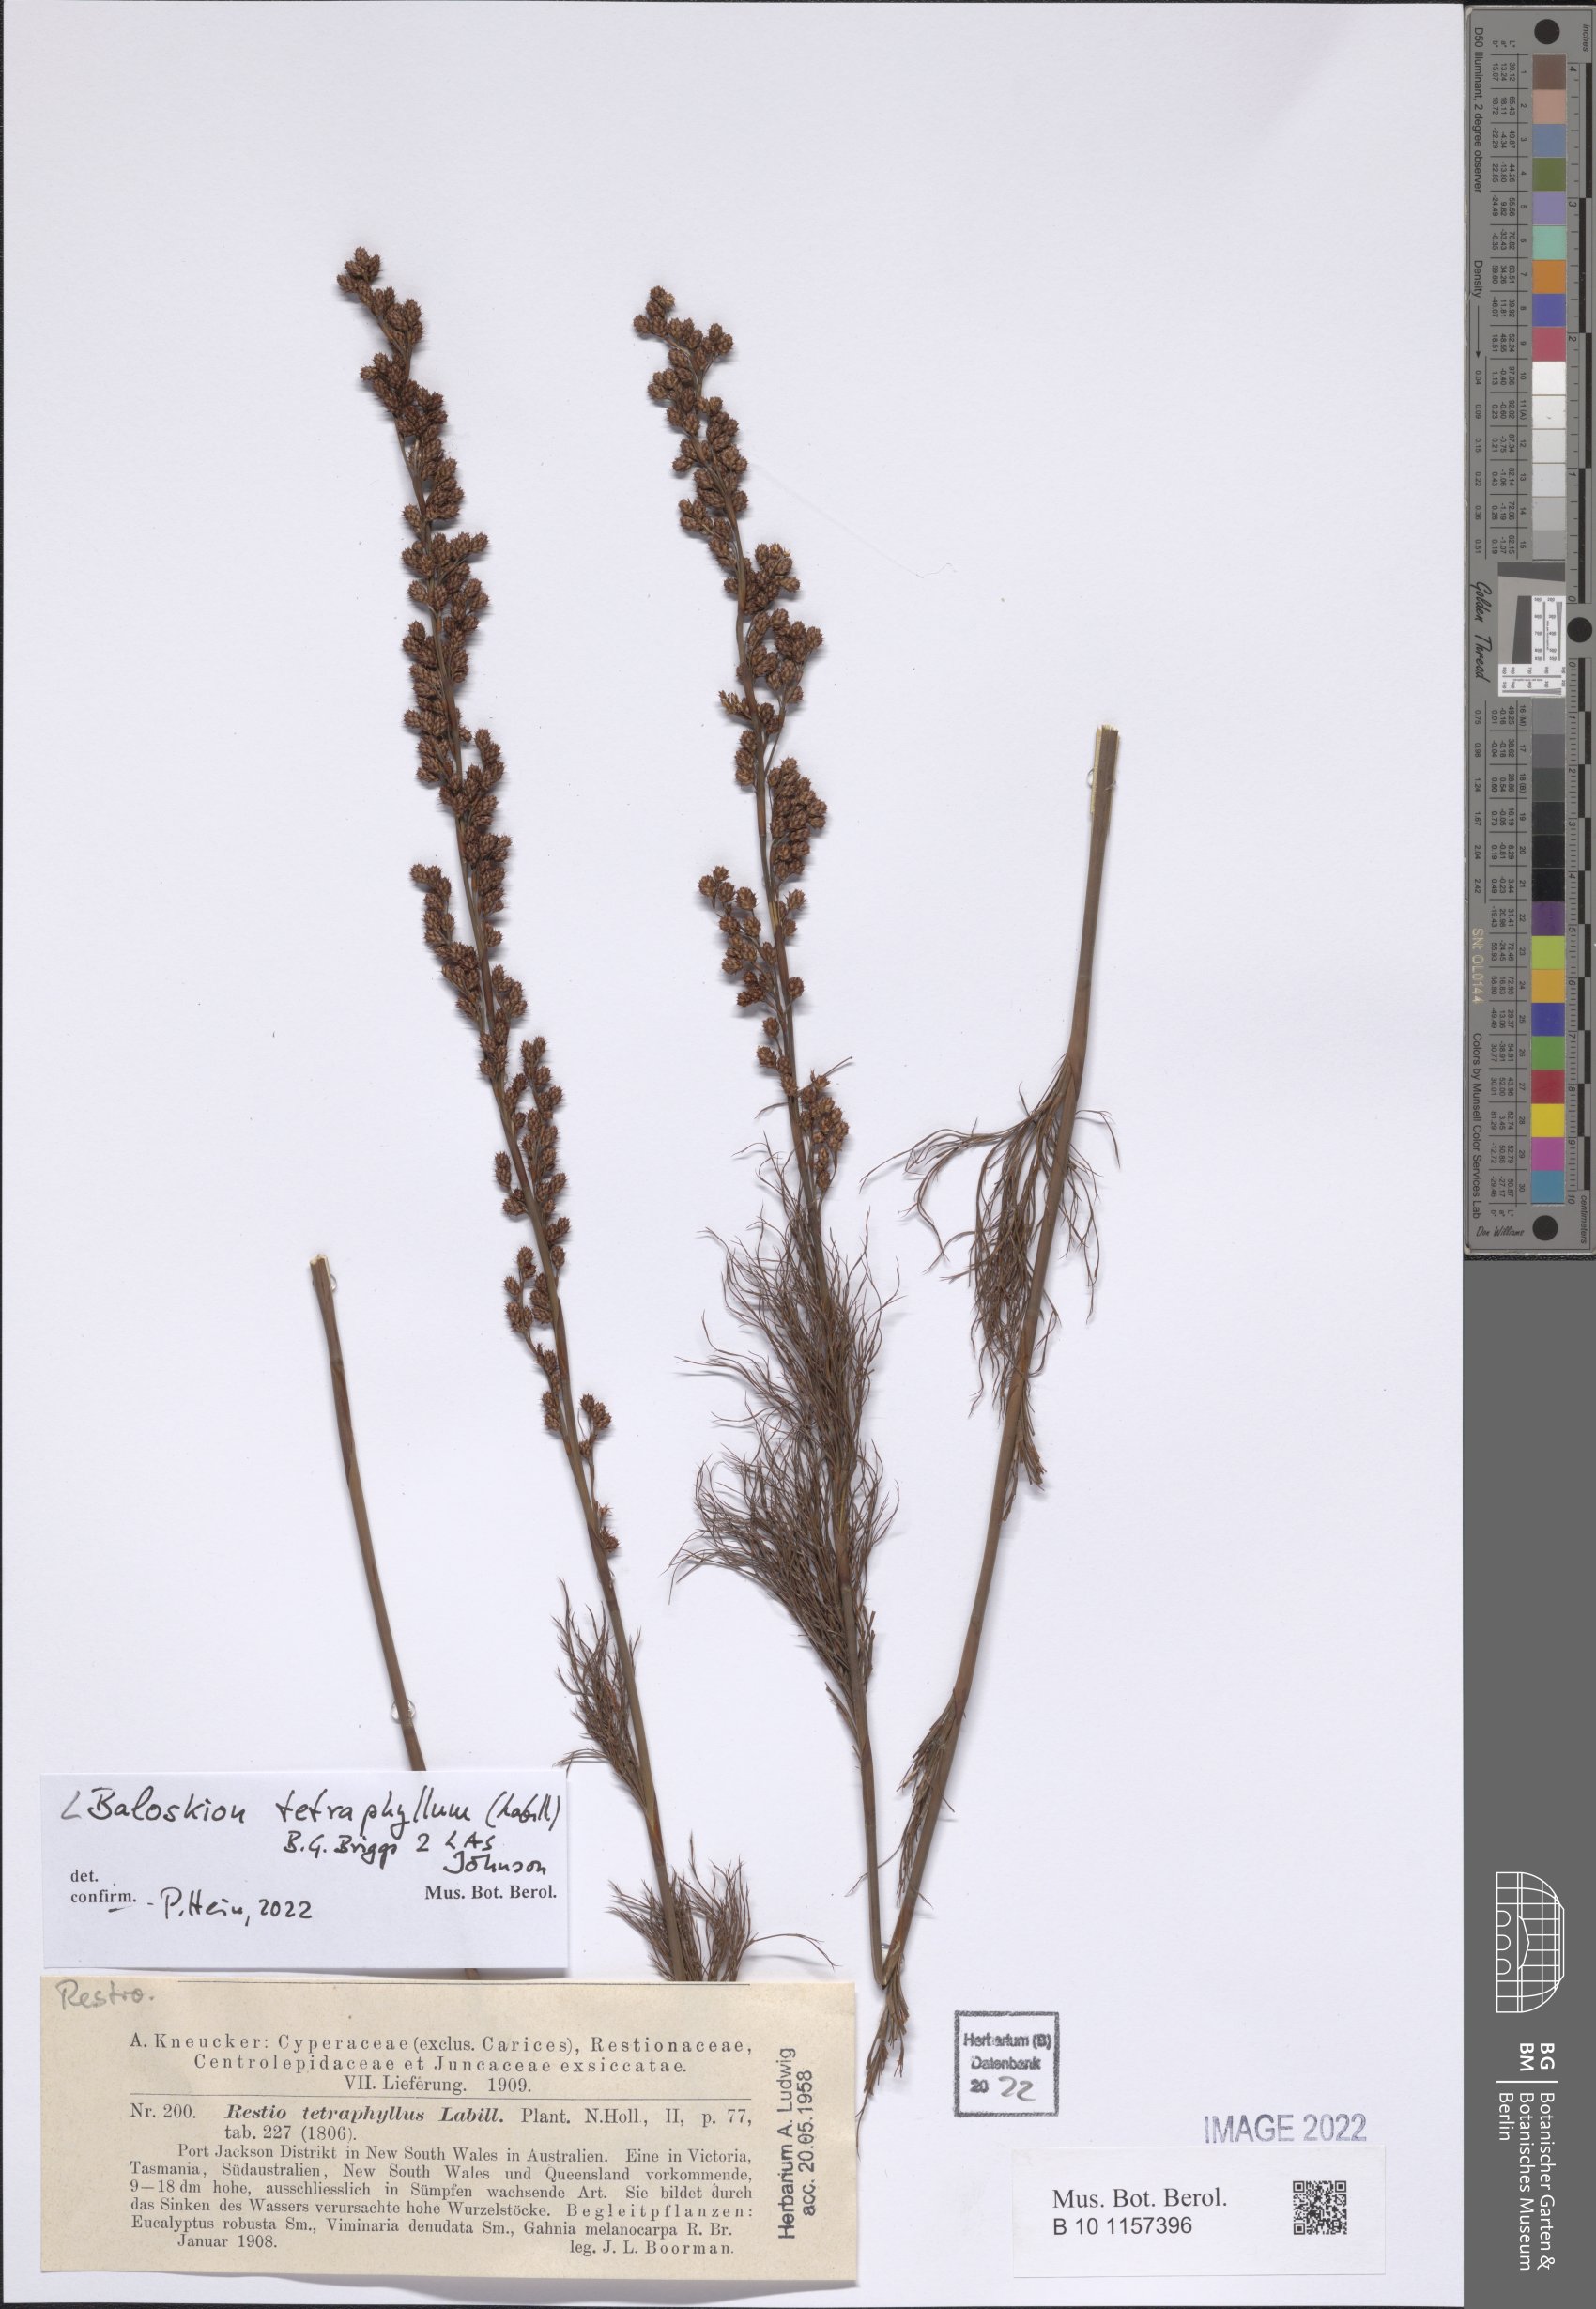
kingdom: Plantae
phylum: Tracheophyta
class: Liliopsida
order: Poales
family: Restionaceae
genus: Baloskion
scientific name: Baloskion tetraphyllum
